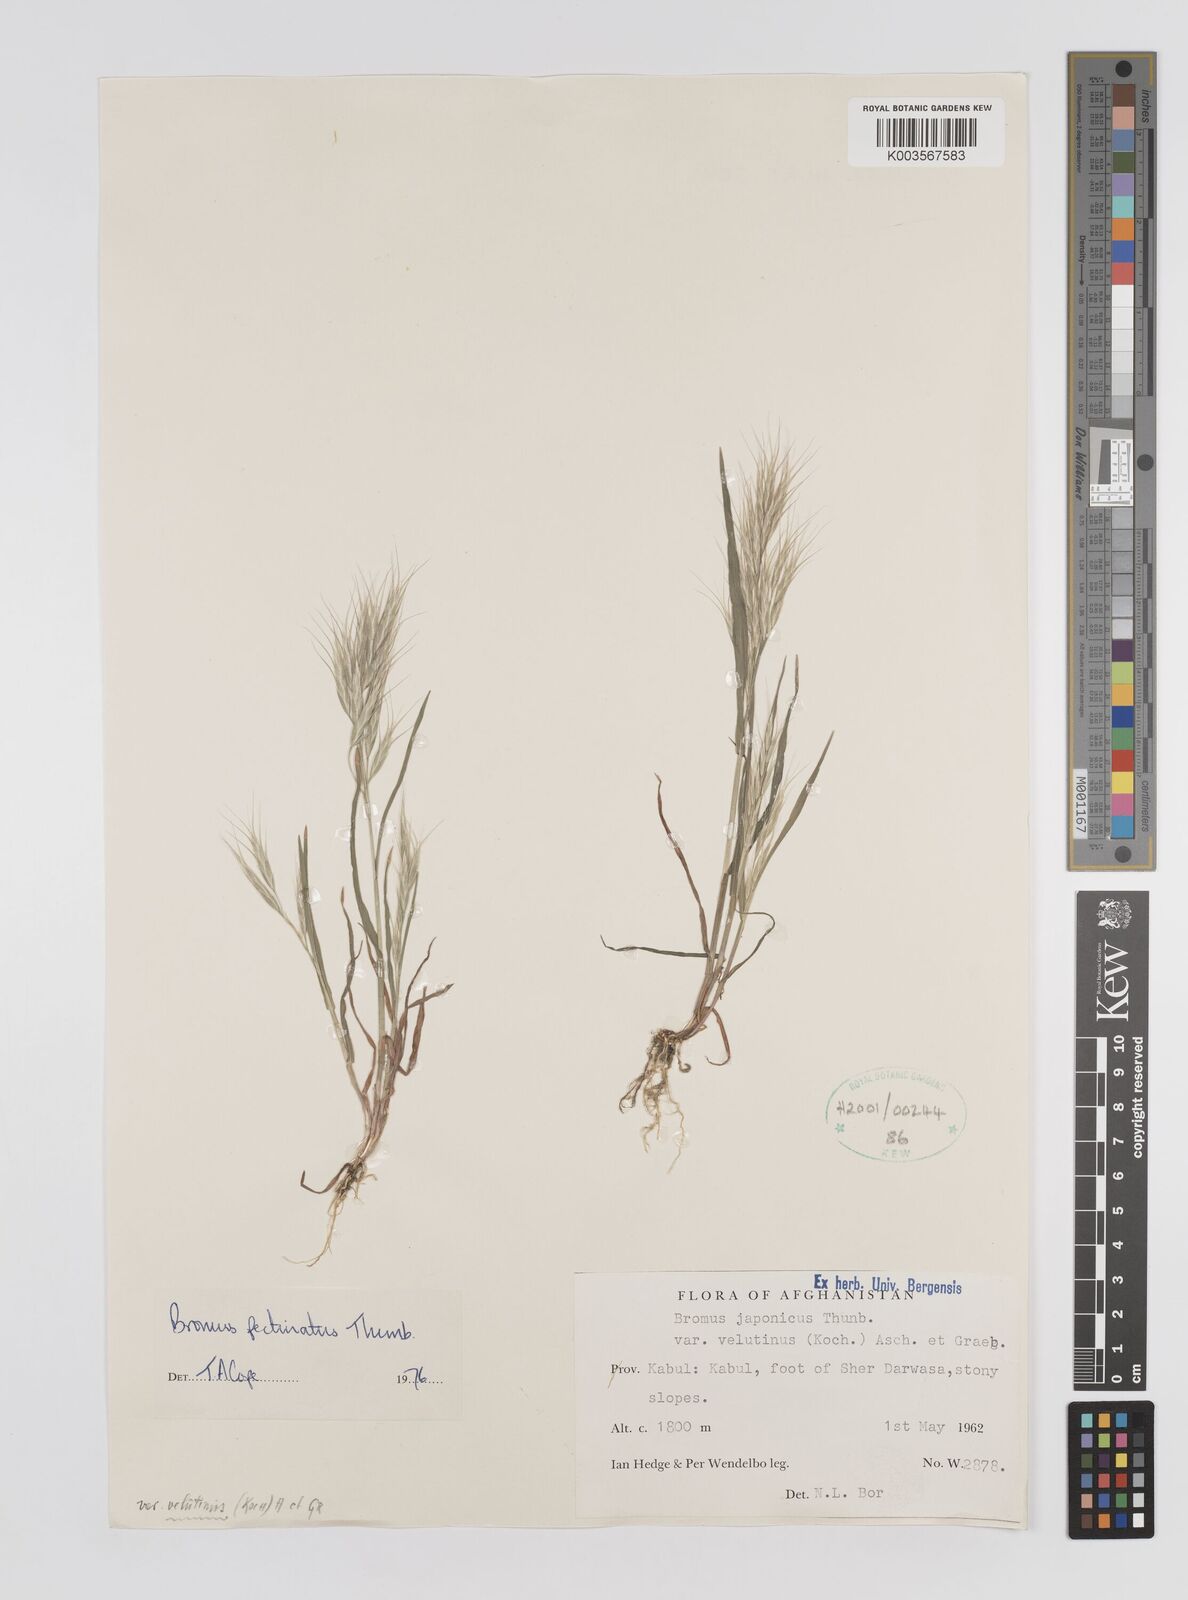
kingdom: Plantae
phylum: Tracheophyta
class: Liliopsida
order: Poales
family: Poaceae
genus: Bromus
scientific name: Bromus pectinatus
